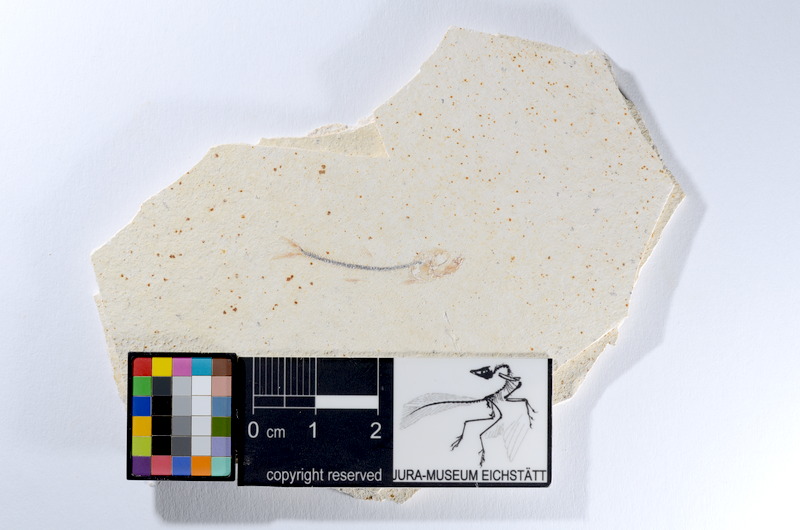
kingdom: Animalia
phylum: Chordata
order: Salmoniformes
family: Orthogonikleithridae
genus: Orthogonikleithrus
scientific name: Orthogonikleithrus hoelli
